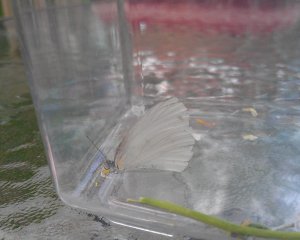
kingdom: Animalia
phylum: Arthropoda
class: Insecta
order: Lepidoptera
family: Pieridae
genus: Pieris
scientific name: Pieris oleracea
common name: Mustard White
